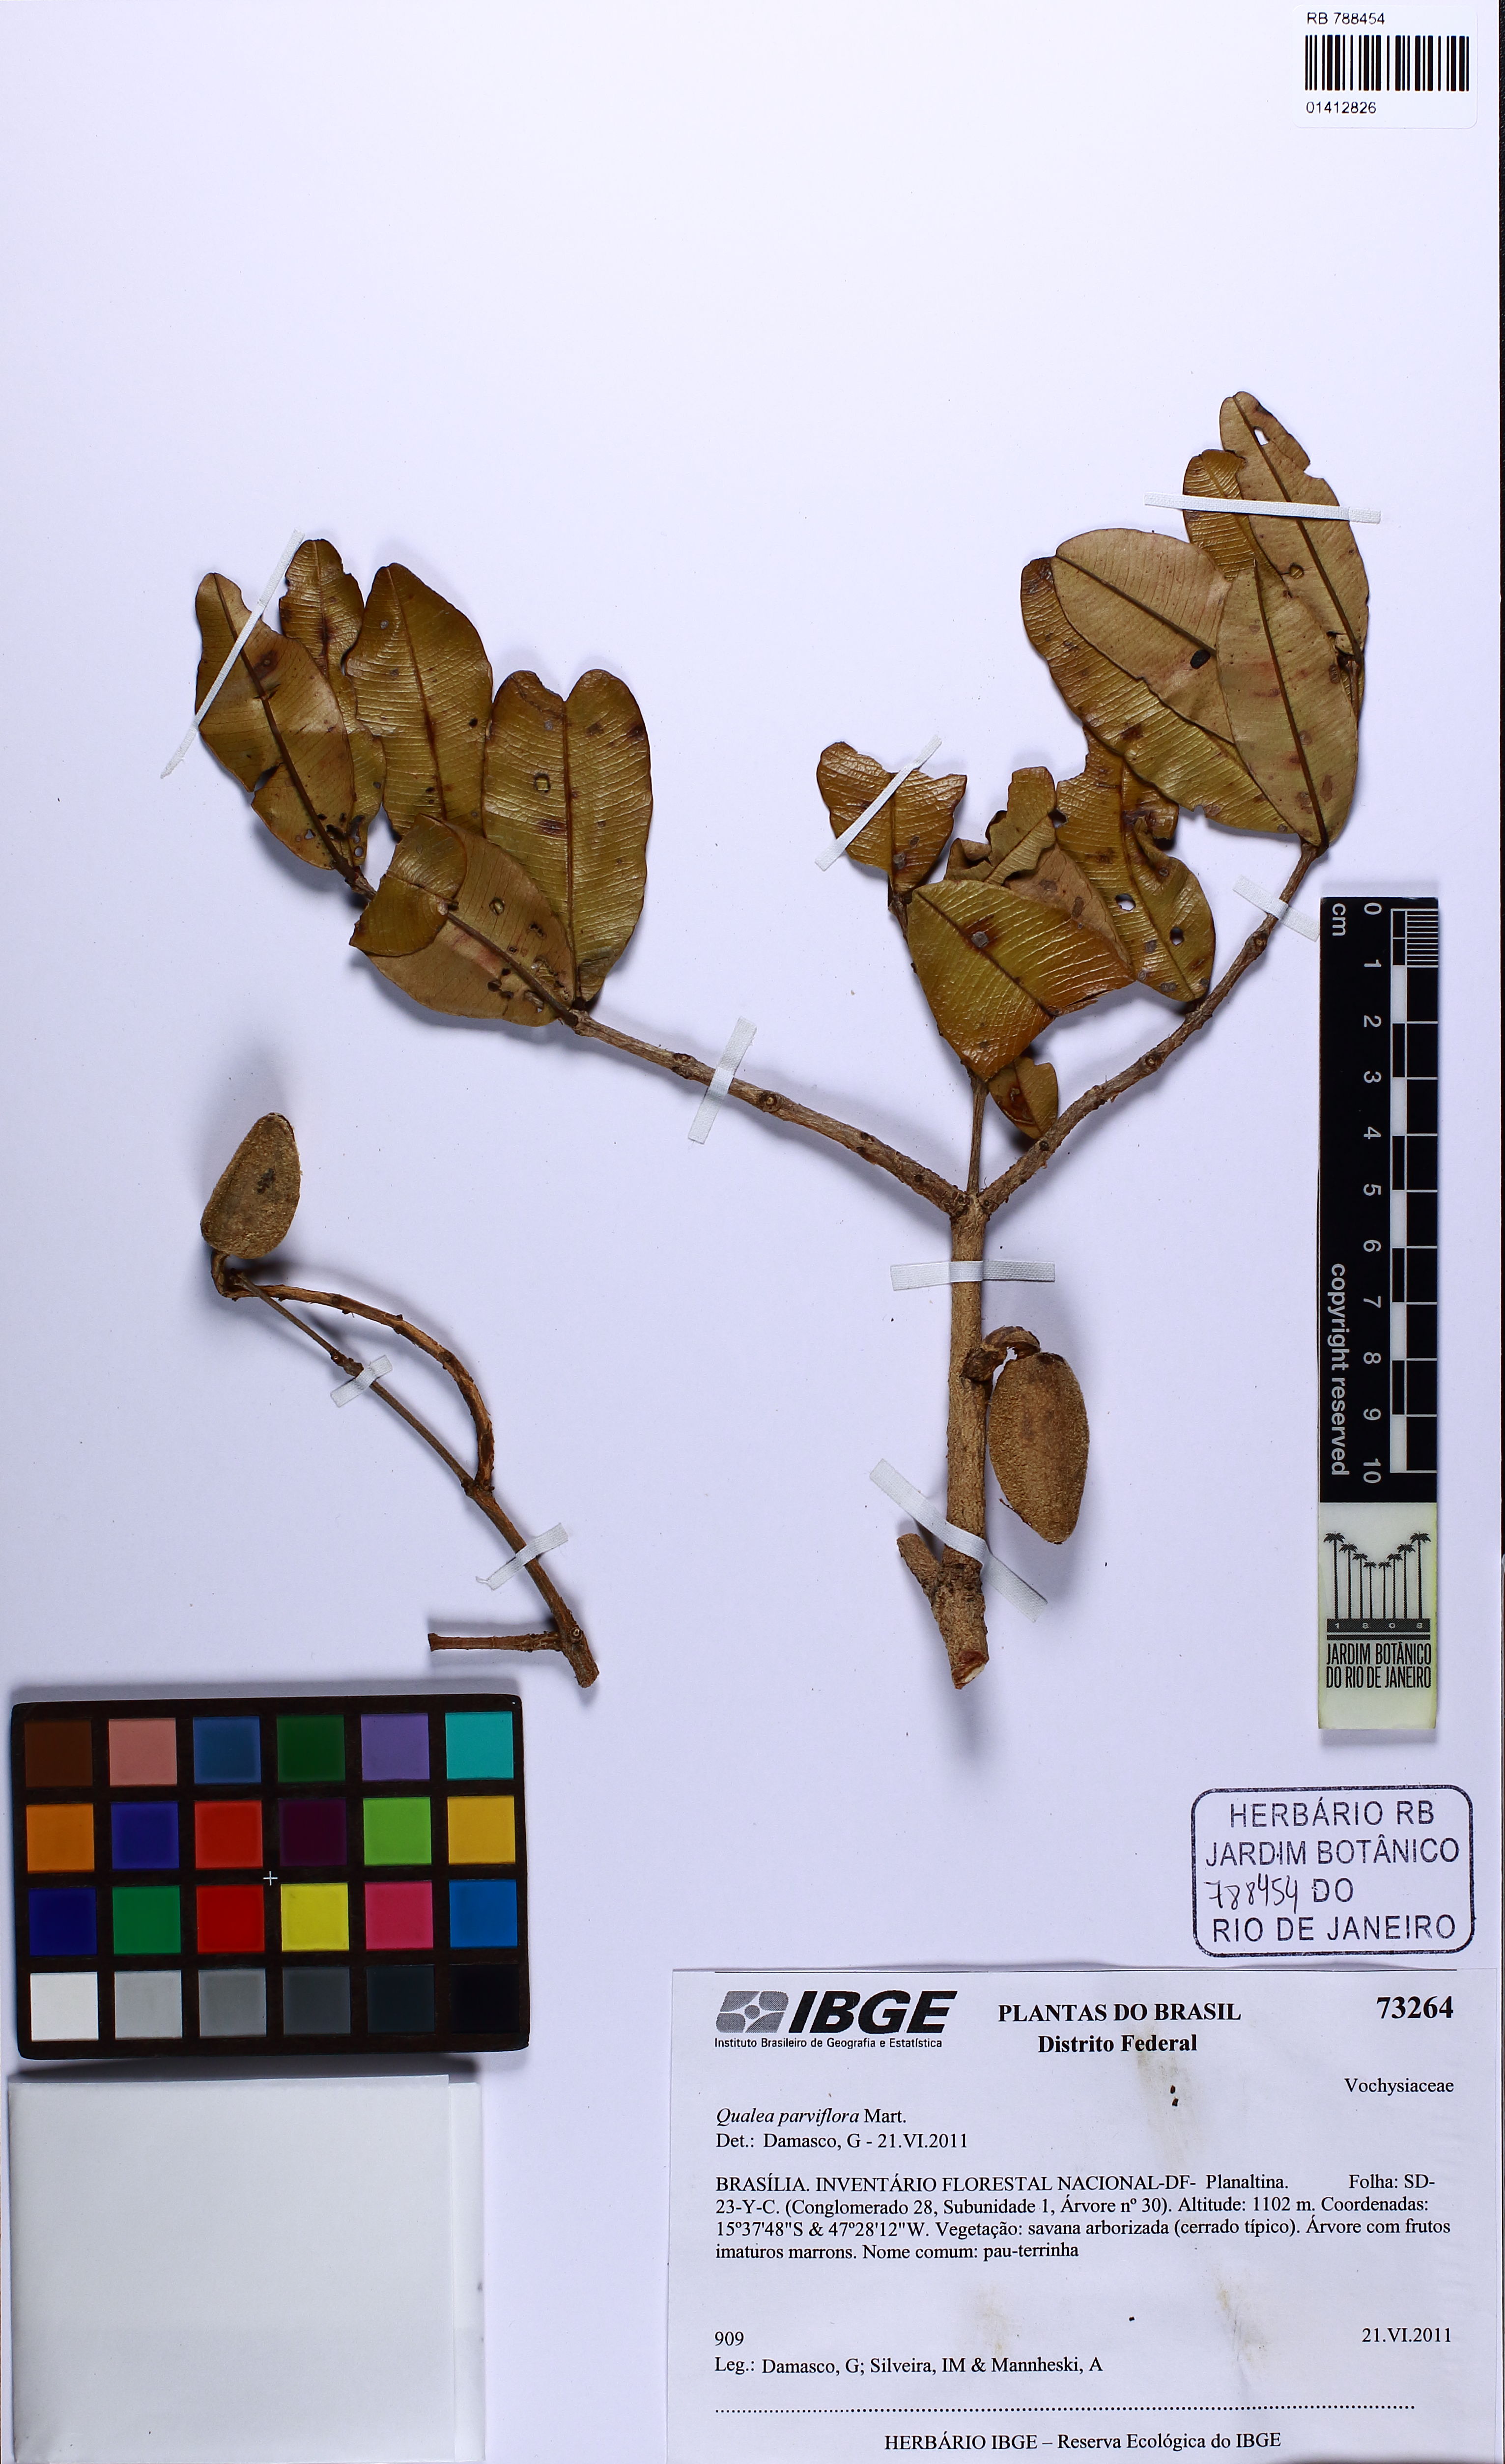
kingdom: Plantae
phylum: Tracheophyta
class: Magnoliopsida
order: Myrtales
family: Vochysiaceae
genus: Qualea
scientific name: Qualea parviflora
